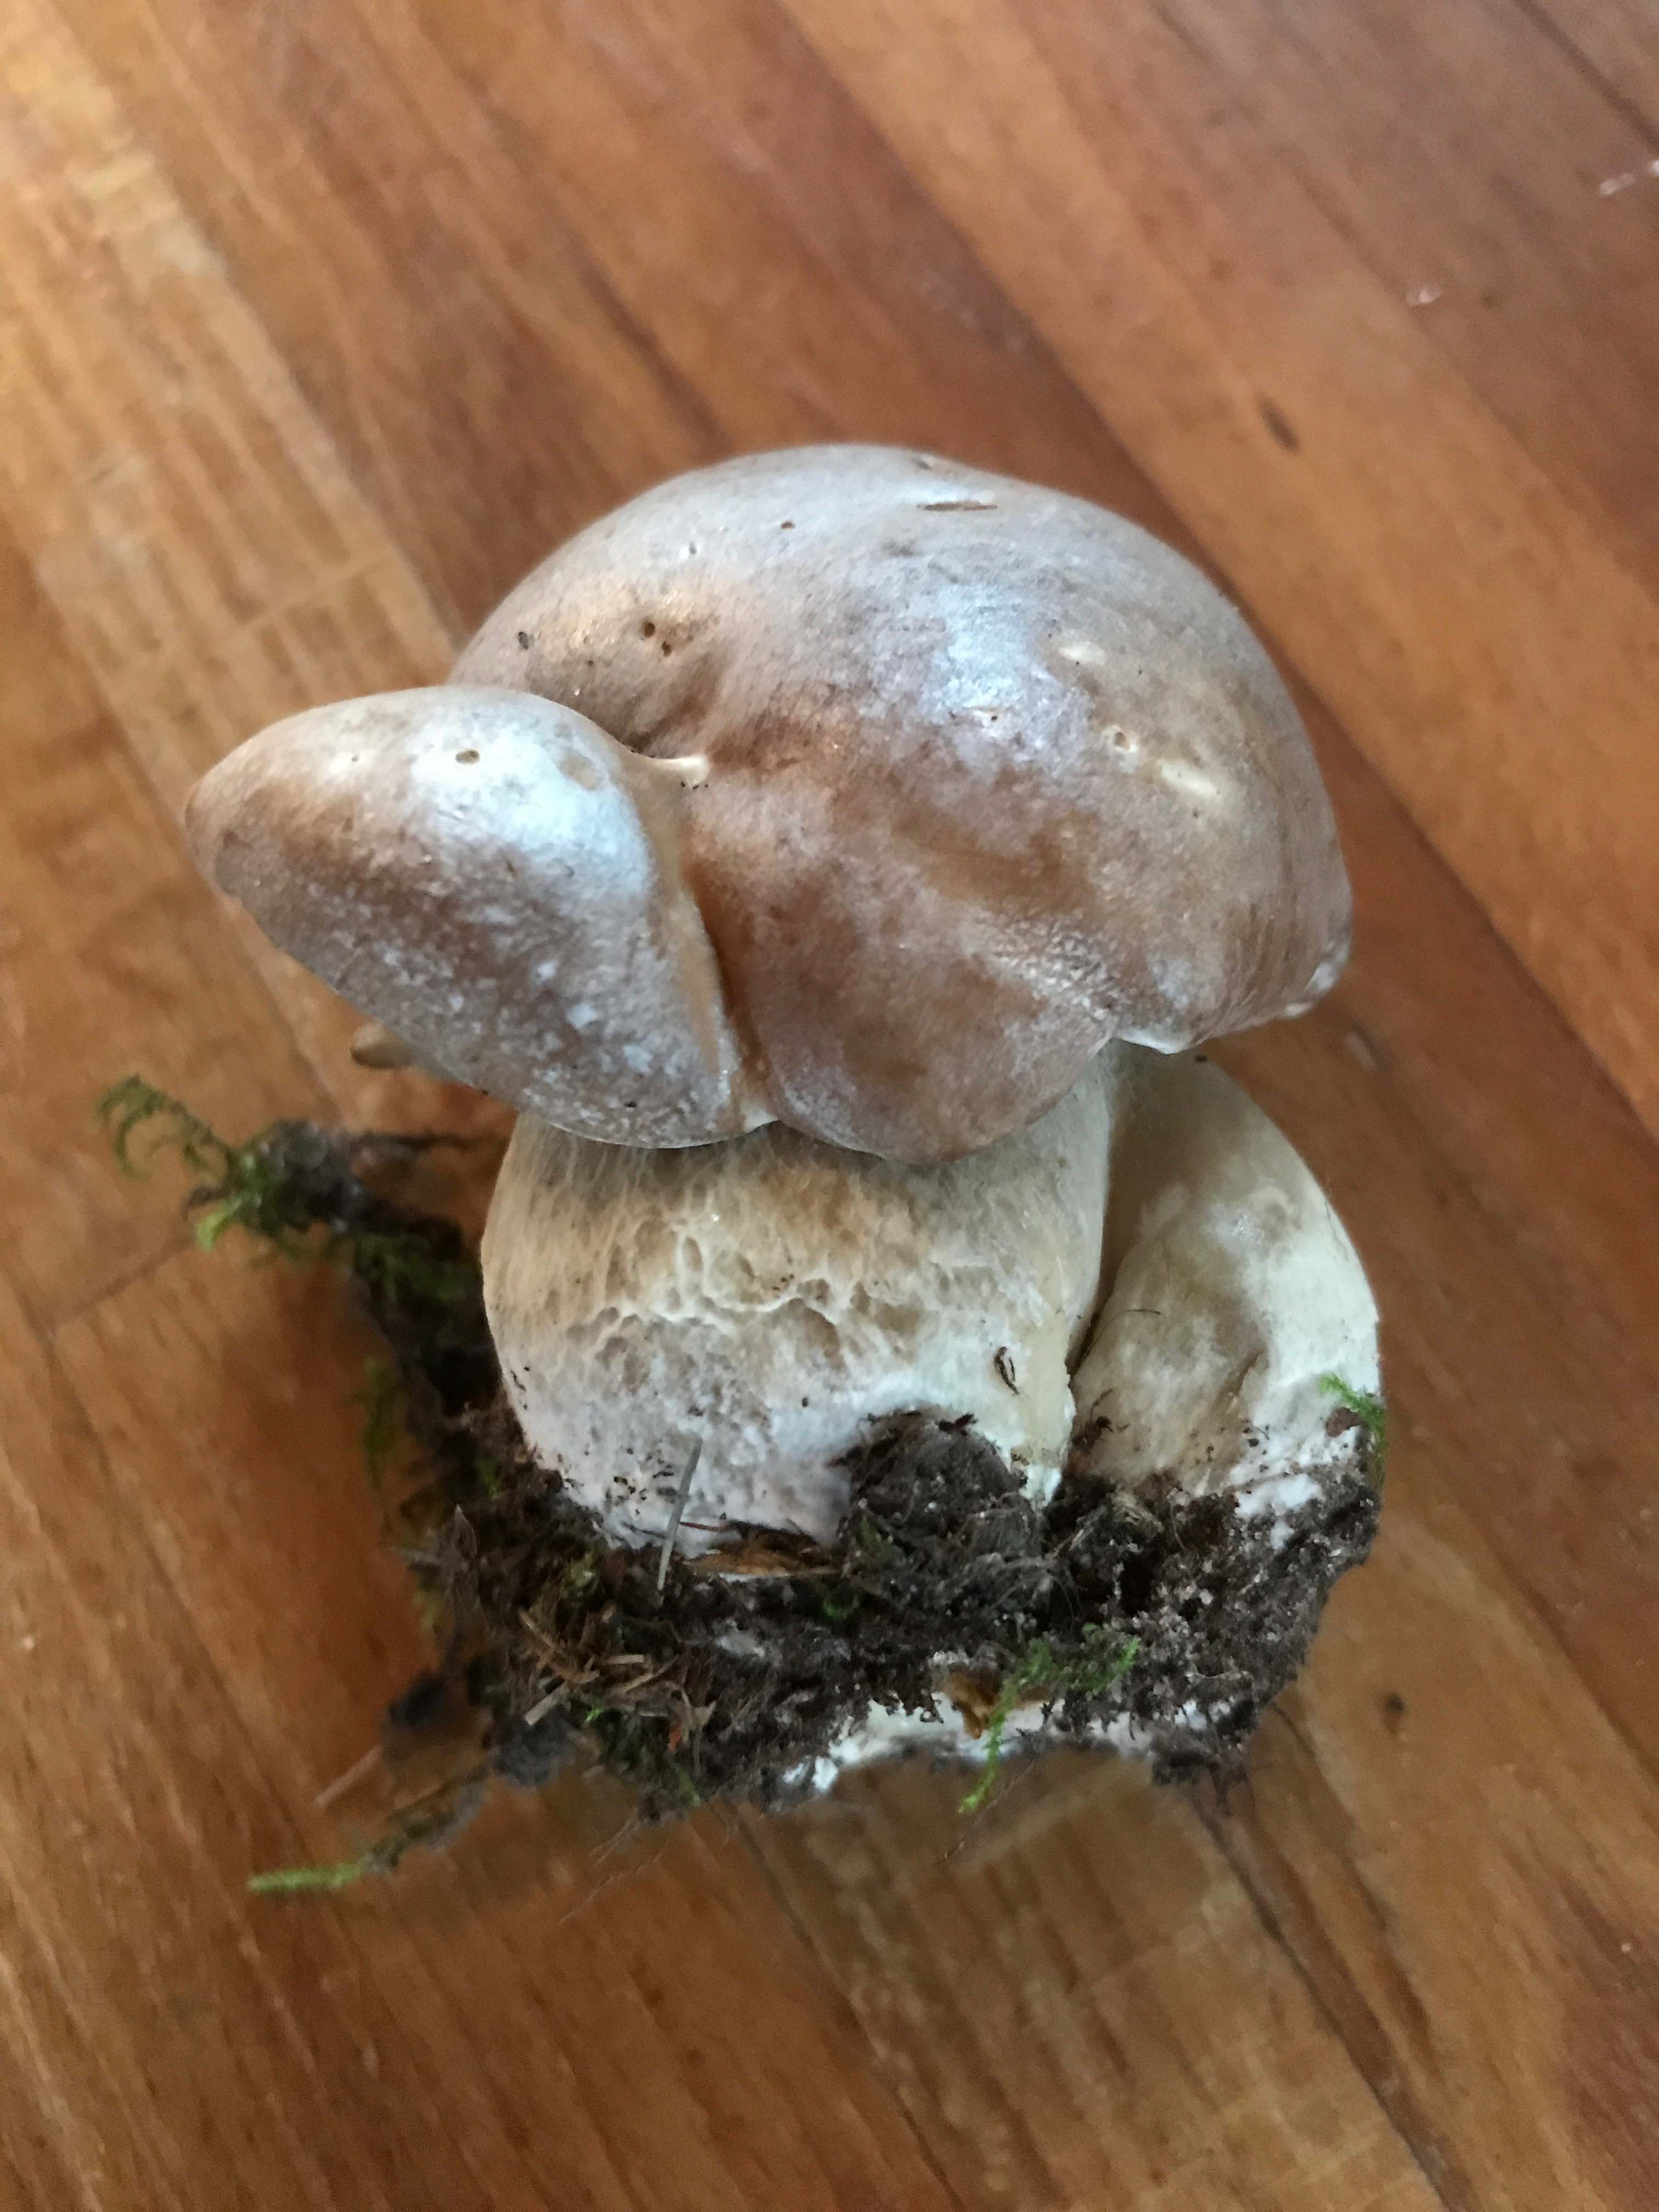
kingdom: Fungi
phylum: Basidiomycota
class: Agaricomycetes
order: Boletales
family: Boletaceae
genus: Boletus
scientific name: Boletus reticulatus
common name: sommer-rørhat
